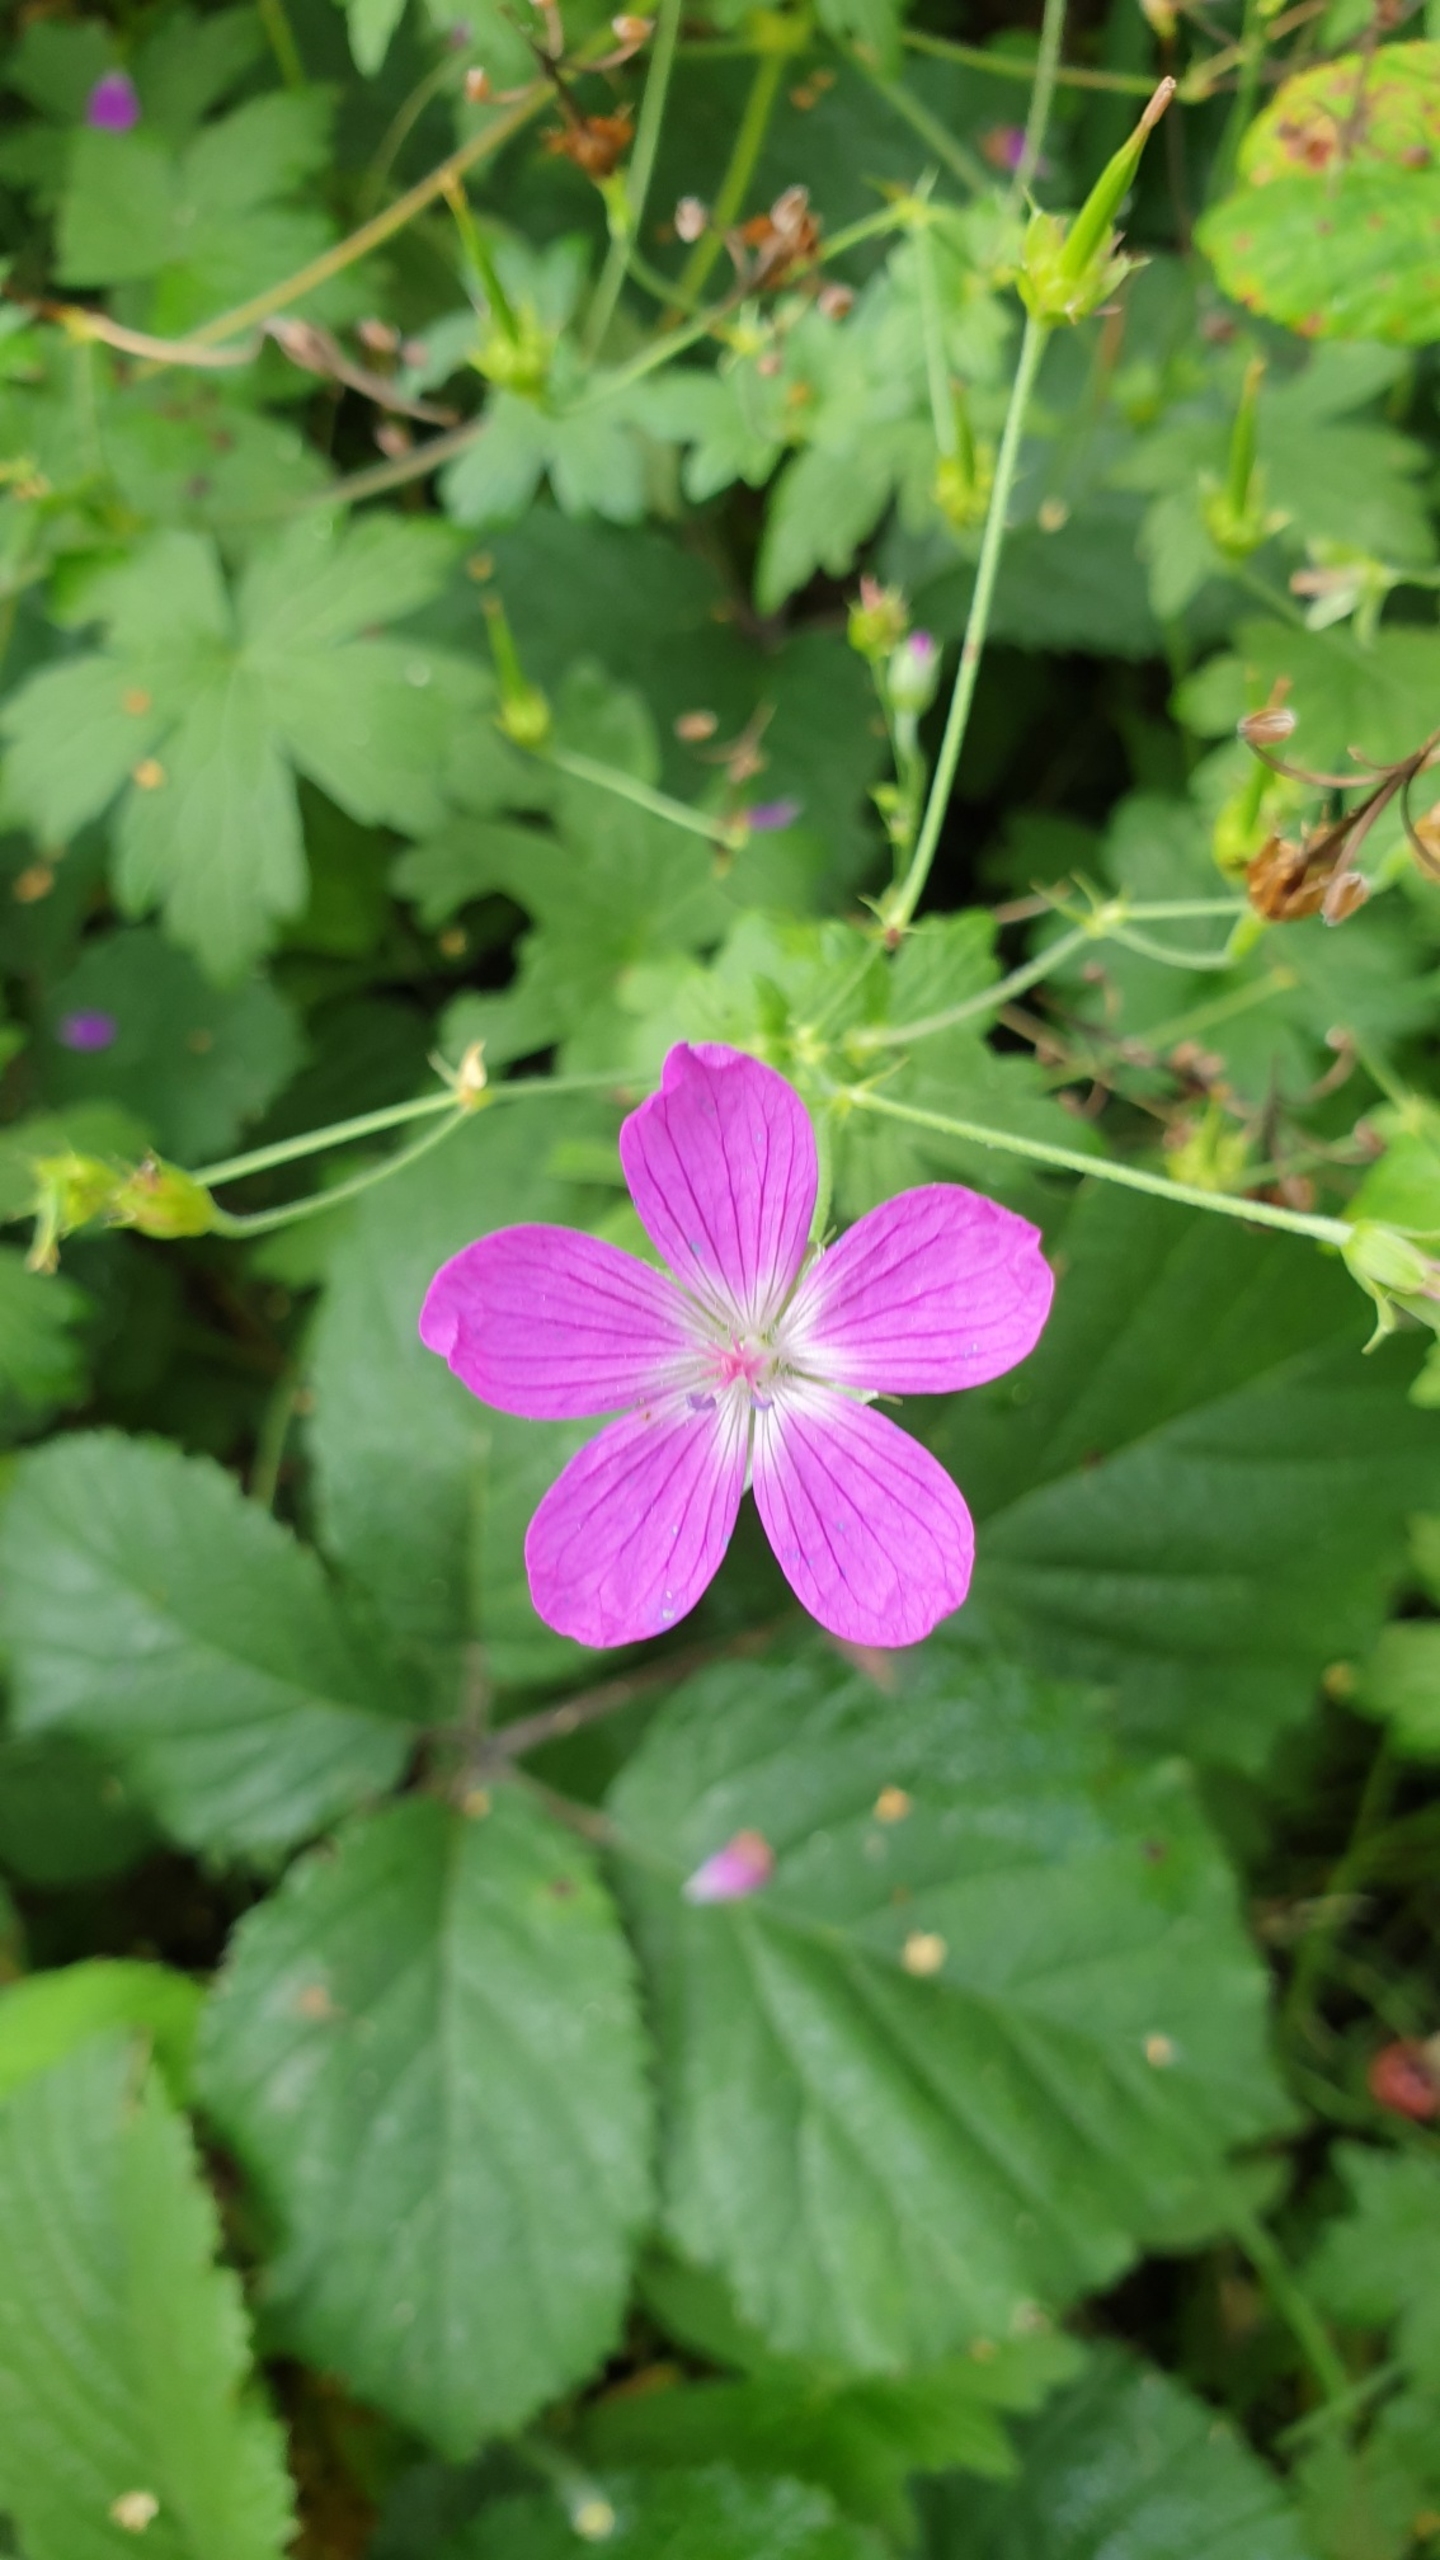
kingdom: Plantae
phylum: Tracheophyta
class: Magnoliopsida
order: Geraniales
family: Geraniaceae
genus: Geranium
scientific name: Geranium palustre
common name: Kær-storkenæb
